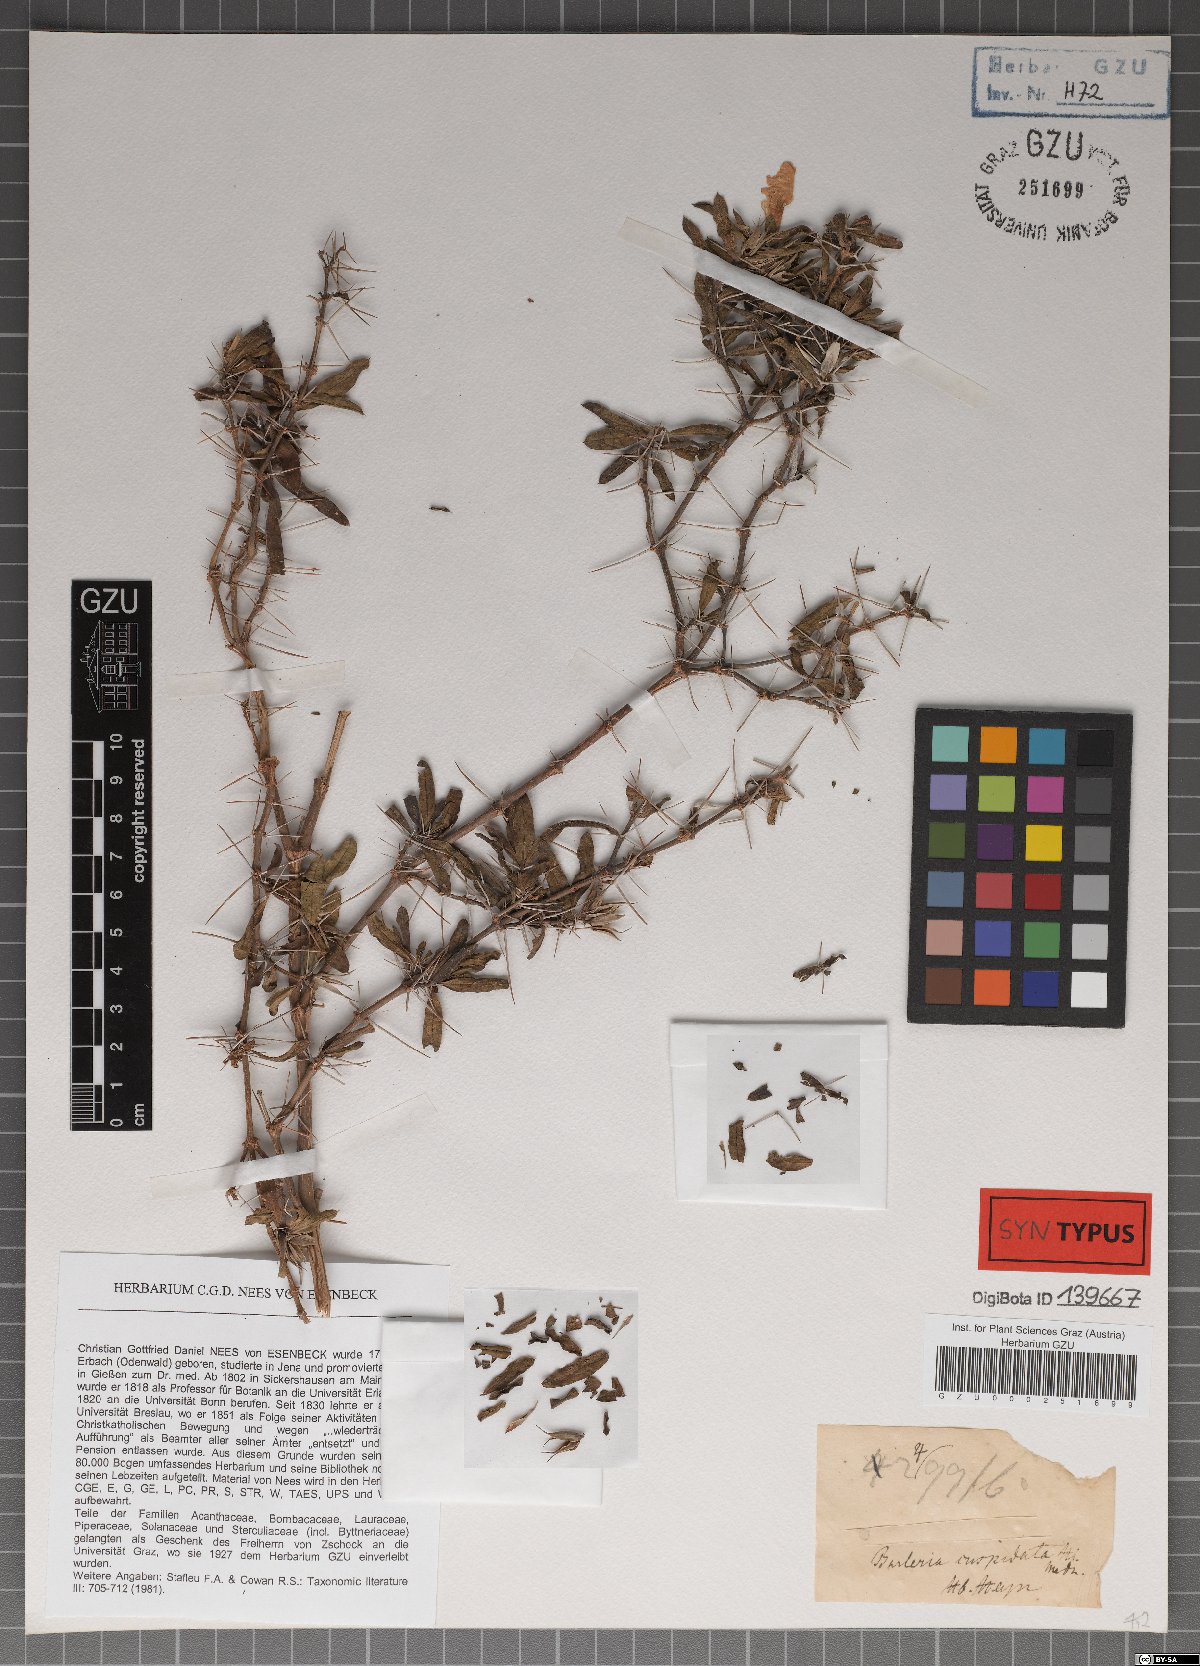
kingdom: Plantae
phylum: Tracheophyta
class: Magnoliopsida
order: Lamiales
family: Acanthaceae
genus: Barleria
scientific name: Barleria cuspidata
